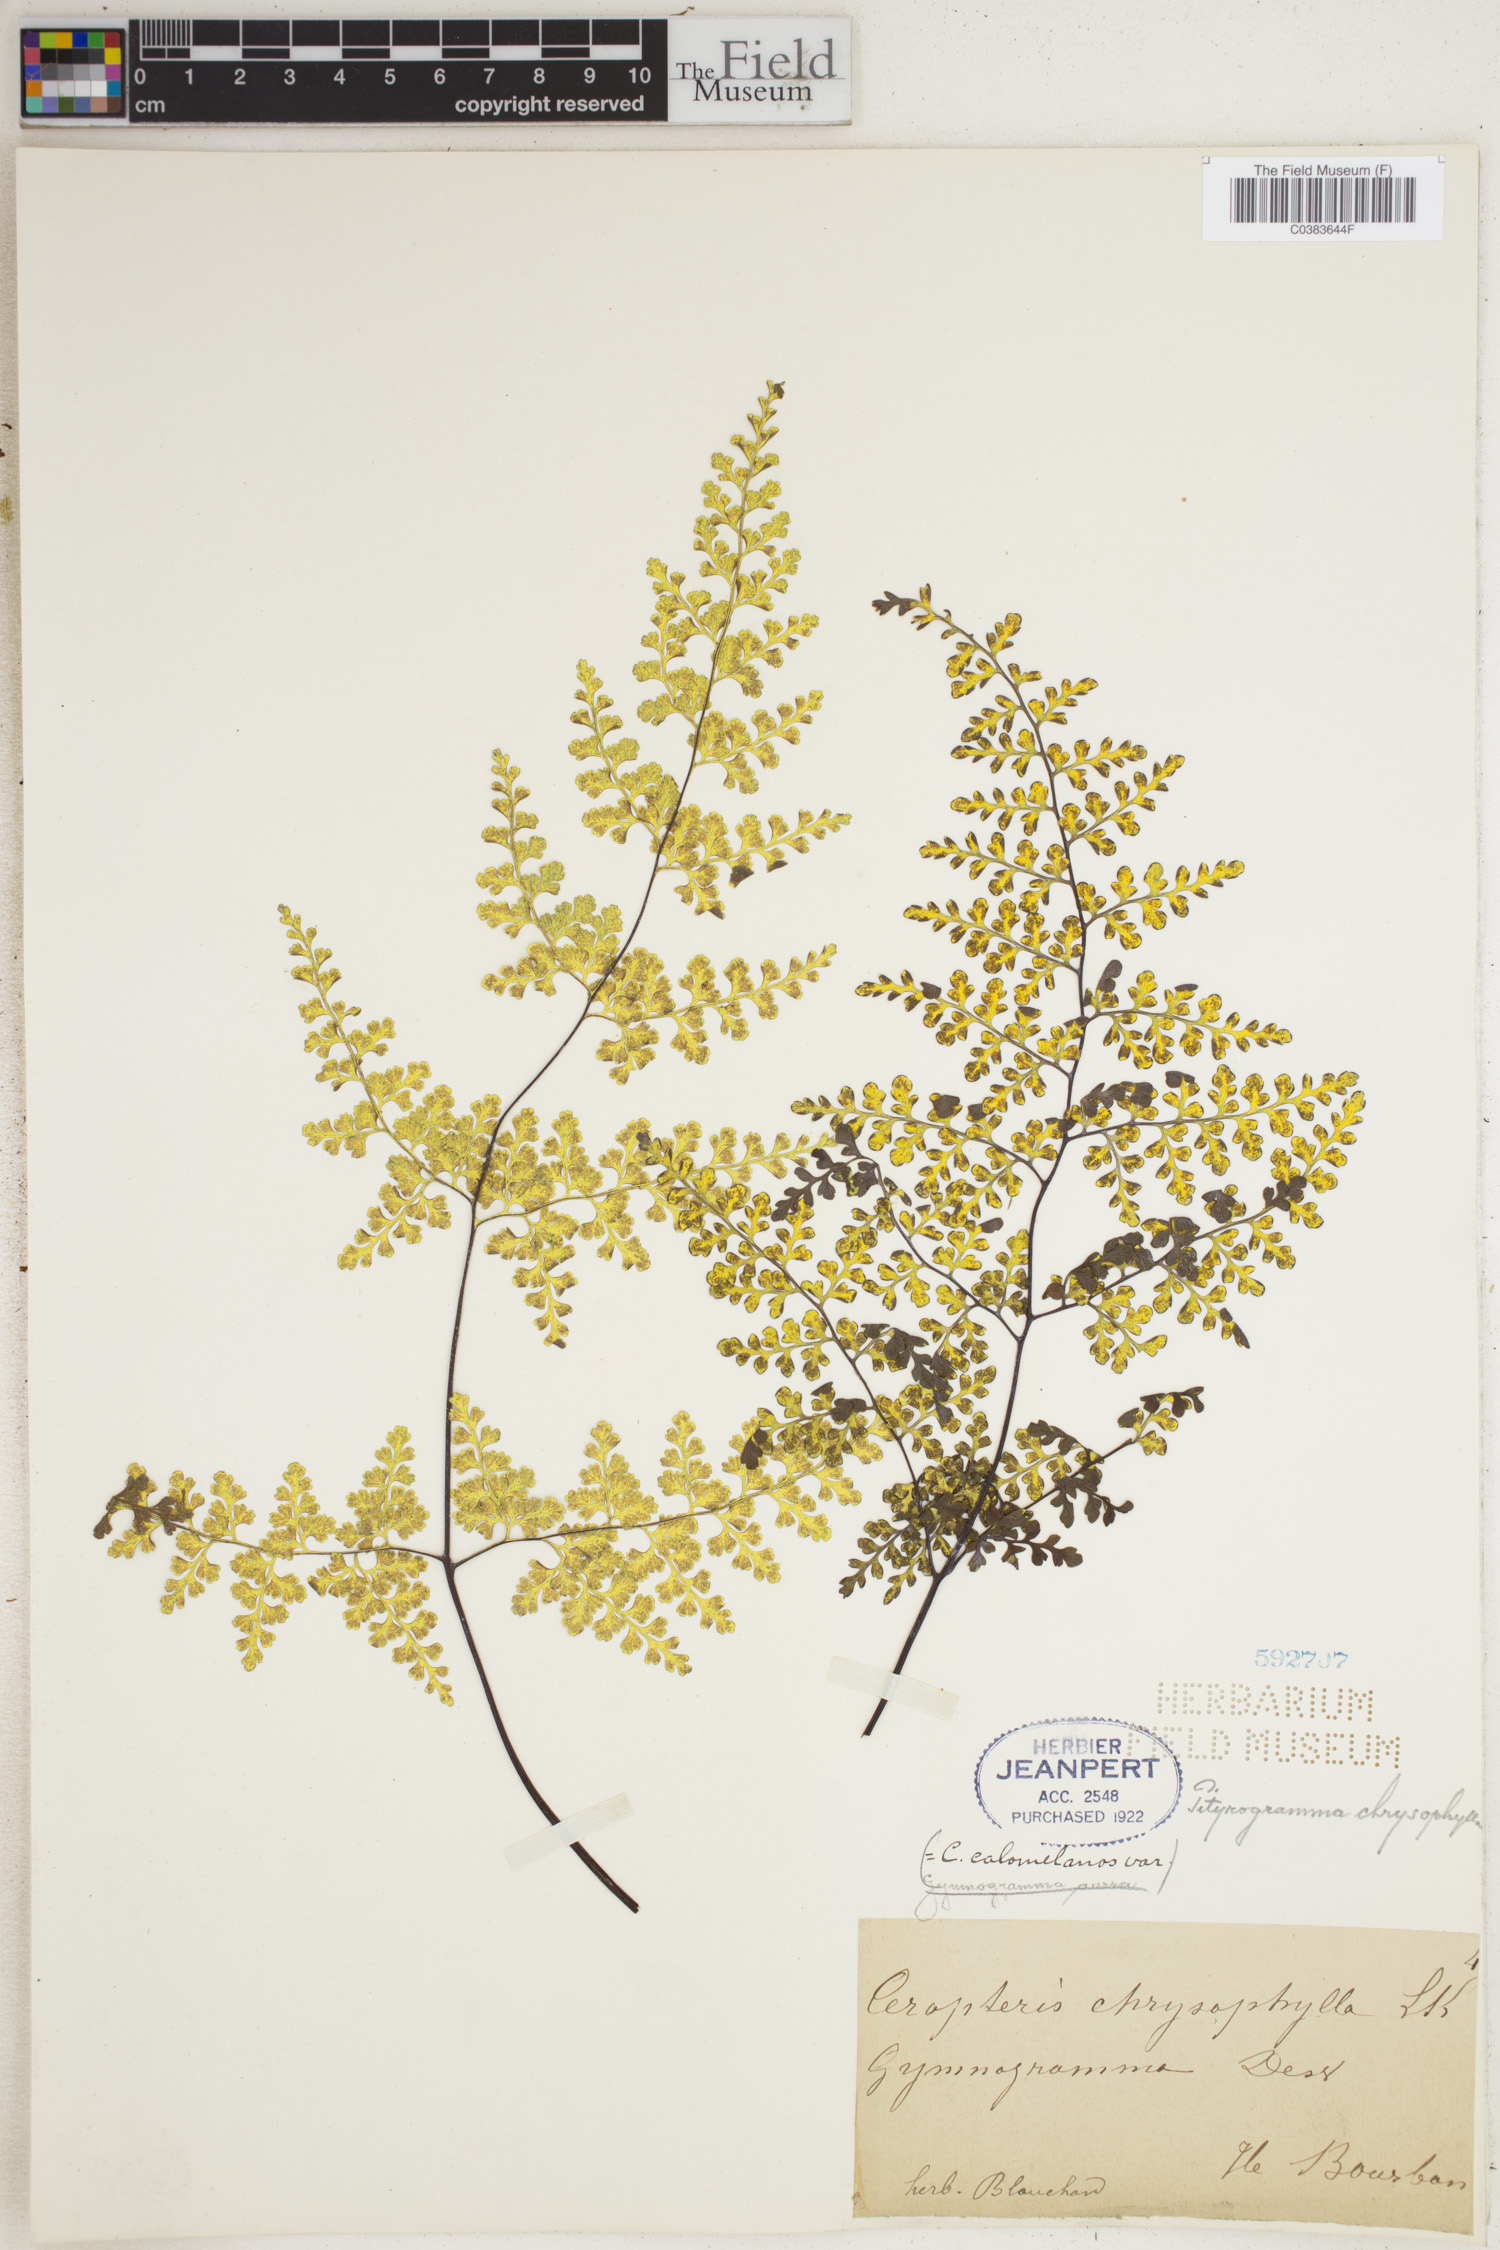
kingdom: Plantae
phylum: Tracheophyta
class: Polypodiopsida
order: Polypodiales
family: Pteridaceae
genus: Pityrogramma
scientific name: Pityrogramma calomelanos
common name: Dixie silverback fern
